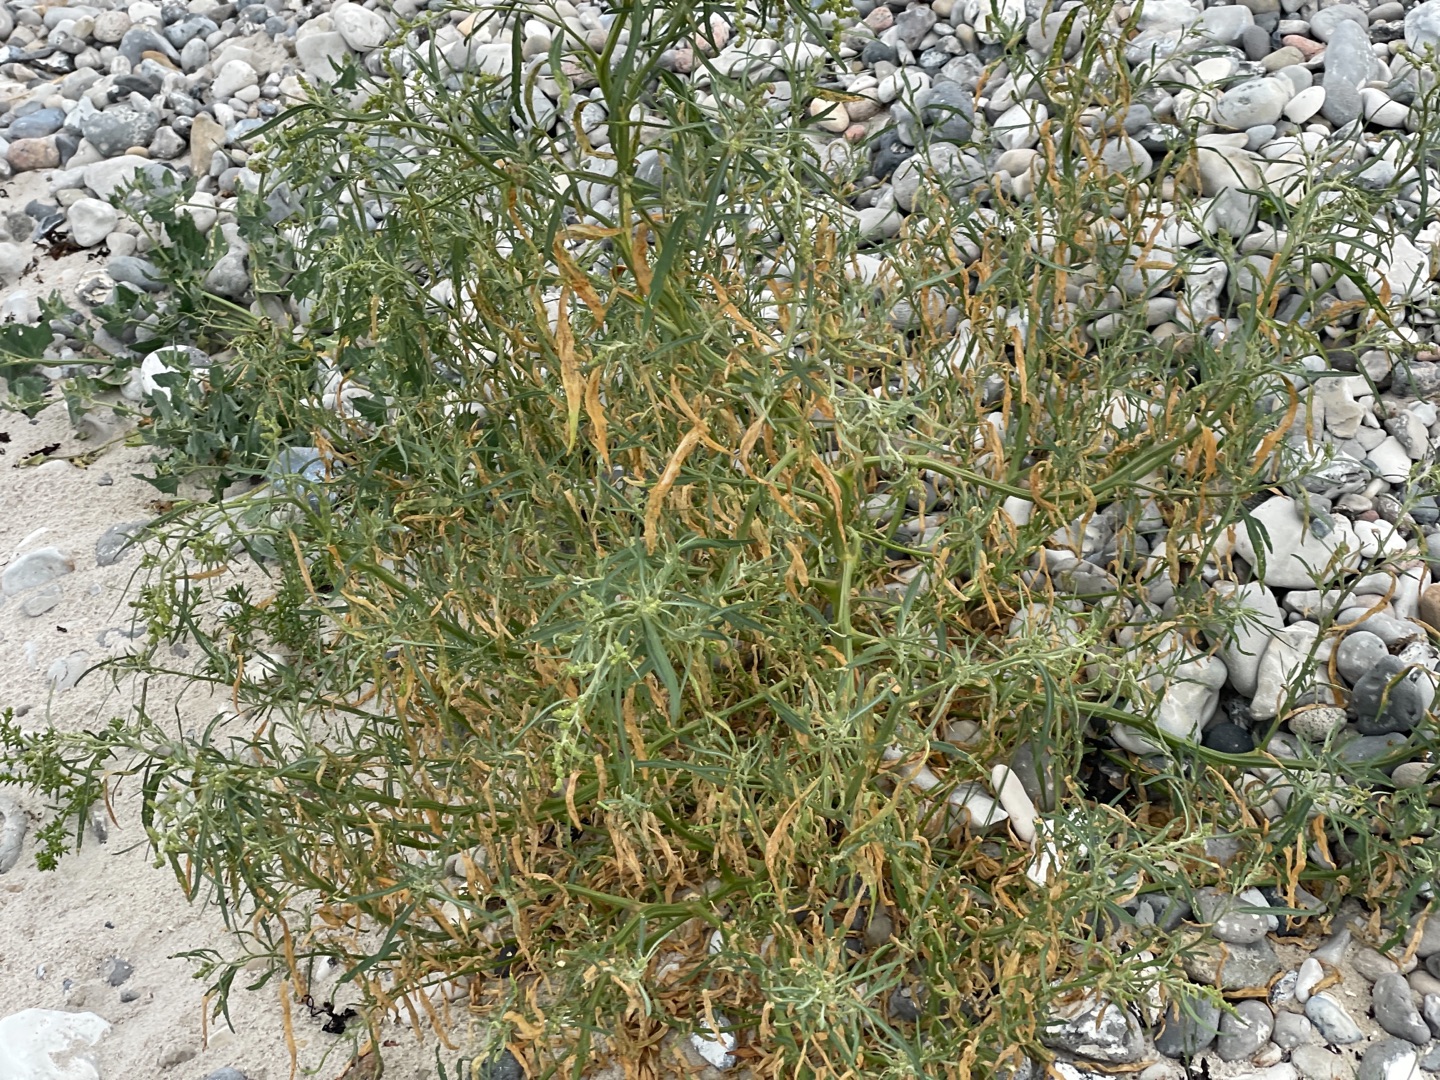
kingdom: Plantae
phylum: Tracheophyta
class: Magnoliopsida
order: Caryophyllales
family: Amaranthaceae
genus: Atriplex
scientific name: Atriplex littoralis
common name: Strand-mælde
